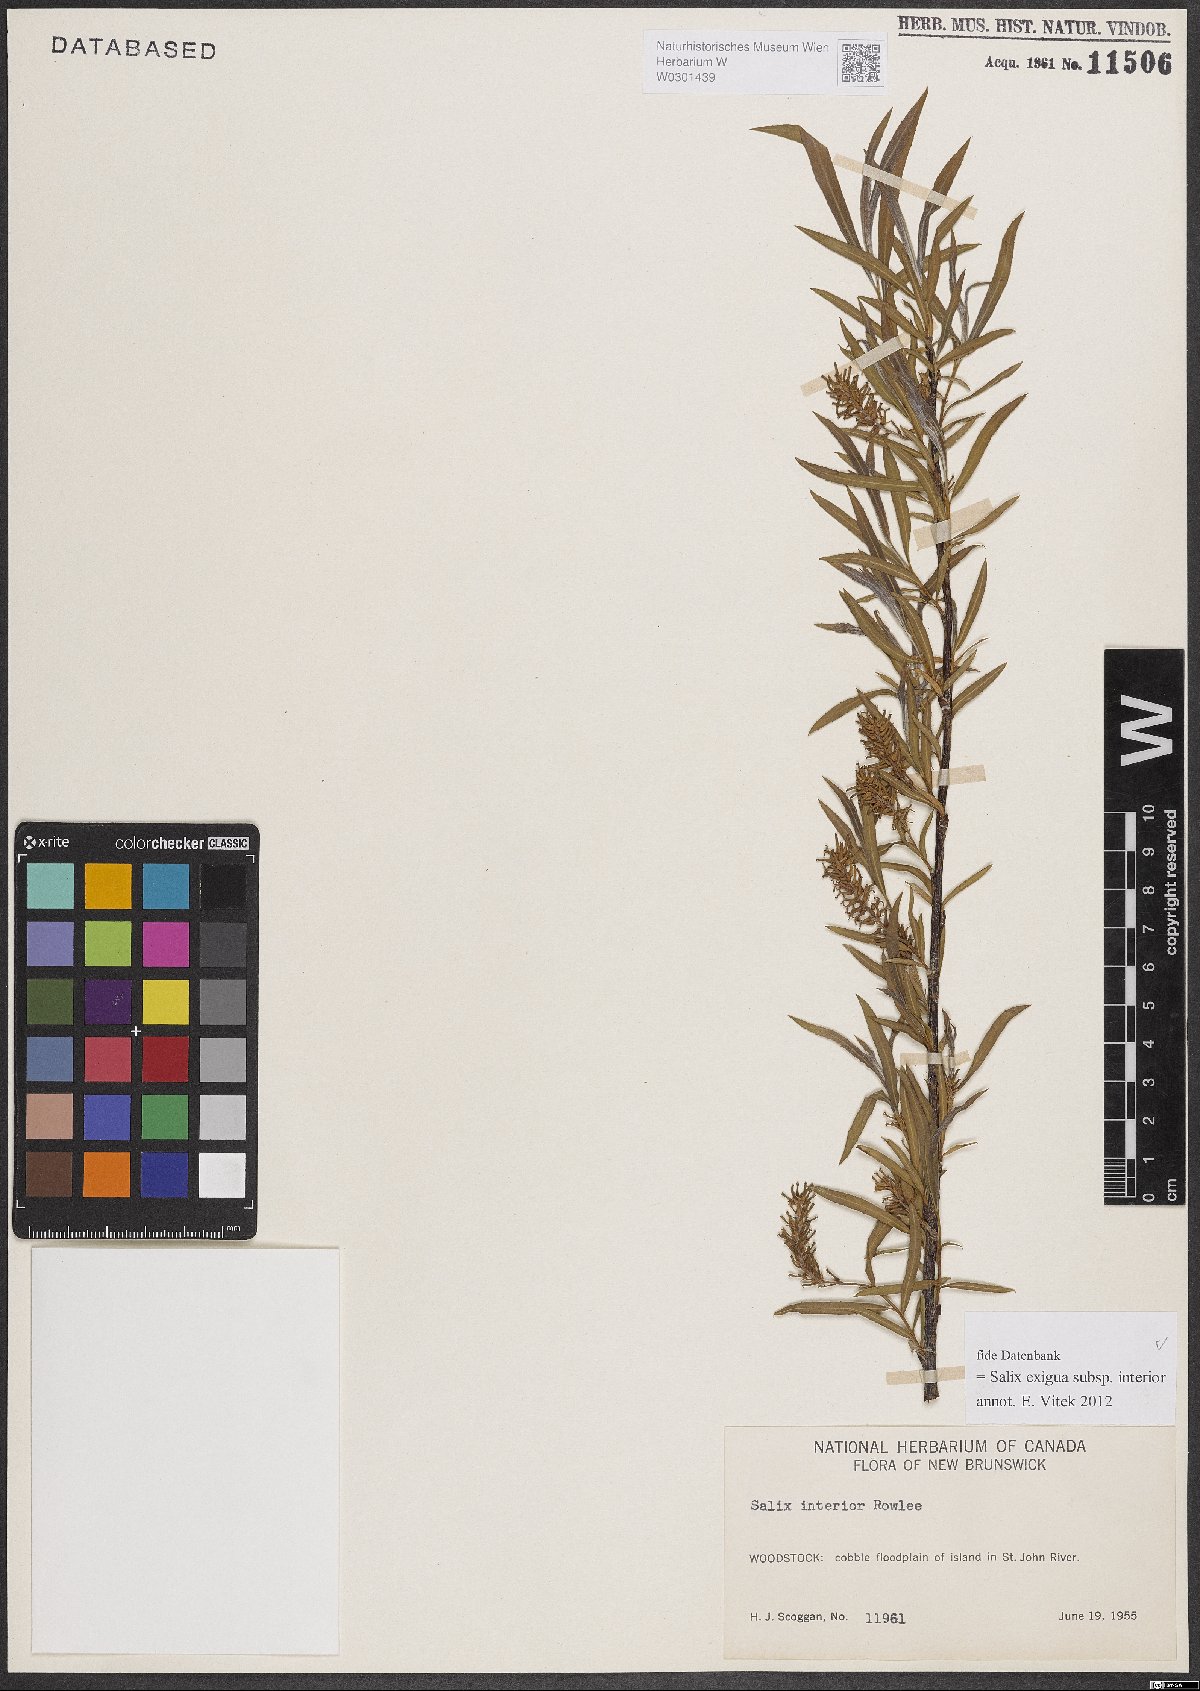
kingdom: Plantae
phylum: Tracheophyta
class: Magnoliopsida
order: Malpighiales
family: Salicaceae
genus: Salix
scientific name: Salix interior
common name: Sandbar willow
